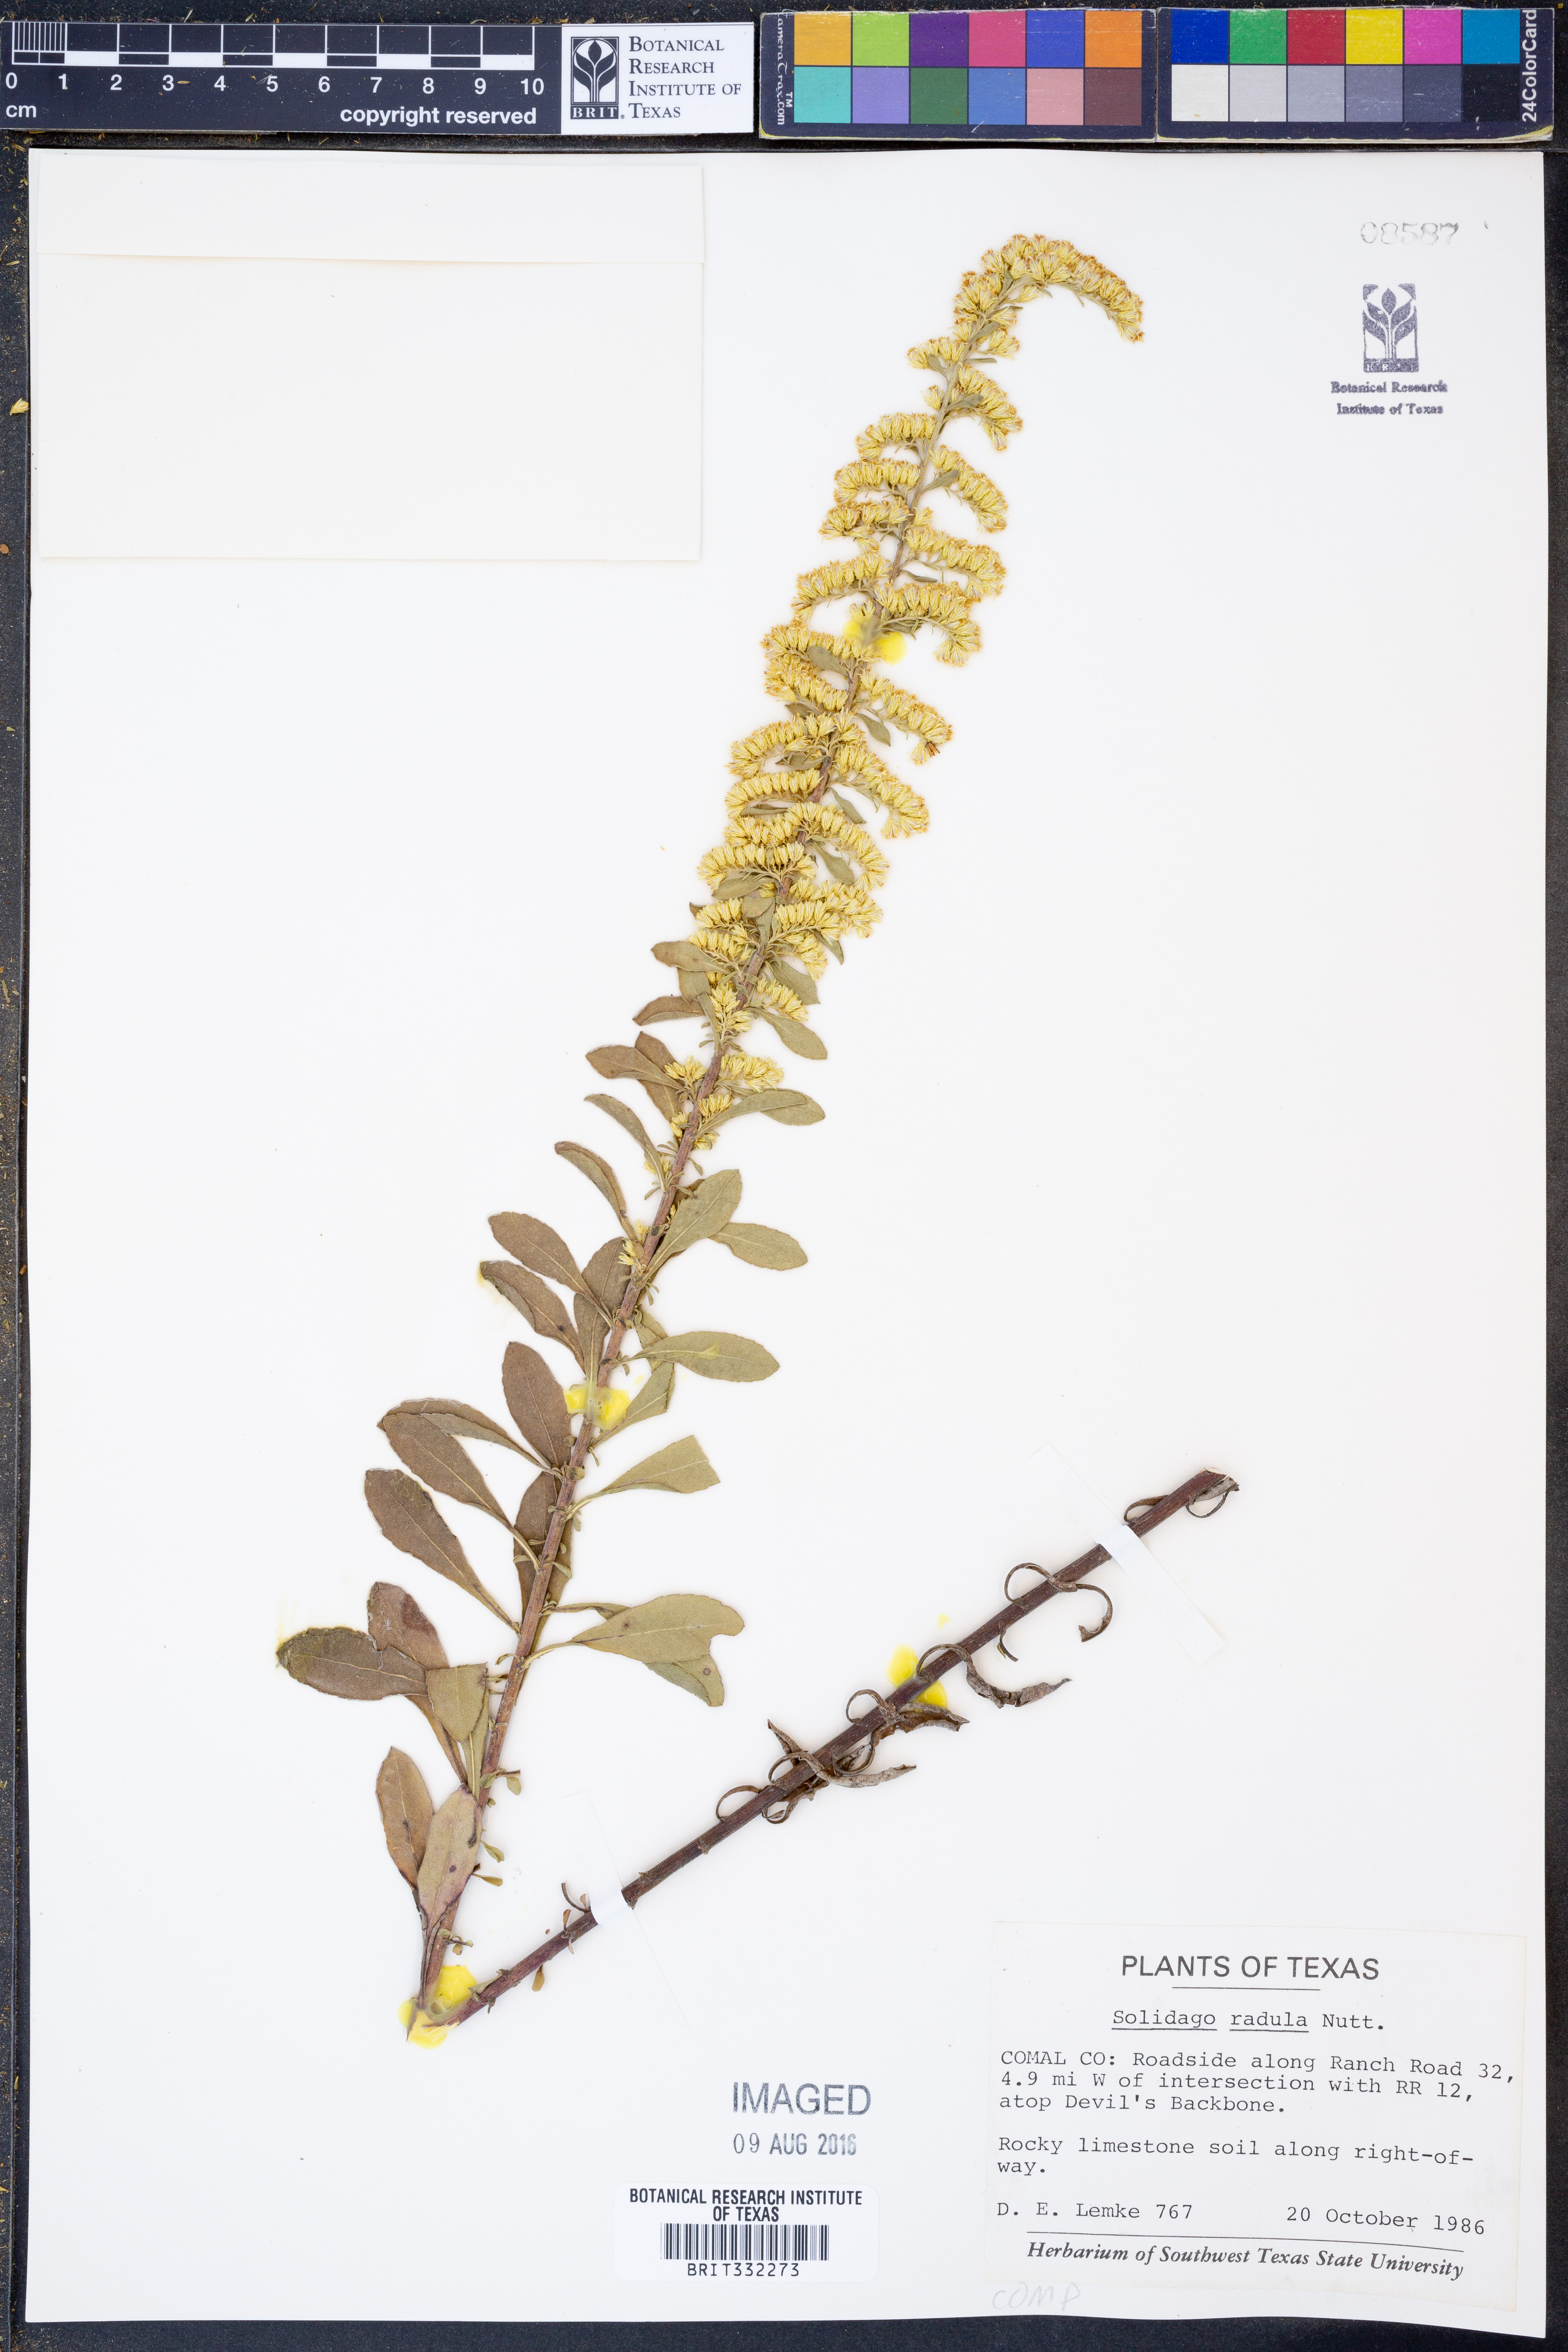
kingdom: Plantae
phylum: Tracheophyta
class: Magnoliopsida
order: Asterales
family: Asteraceae
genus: Solidago
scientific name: Solidago radula
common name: Western rough goldenrod
